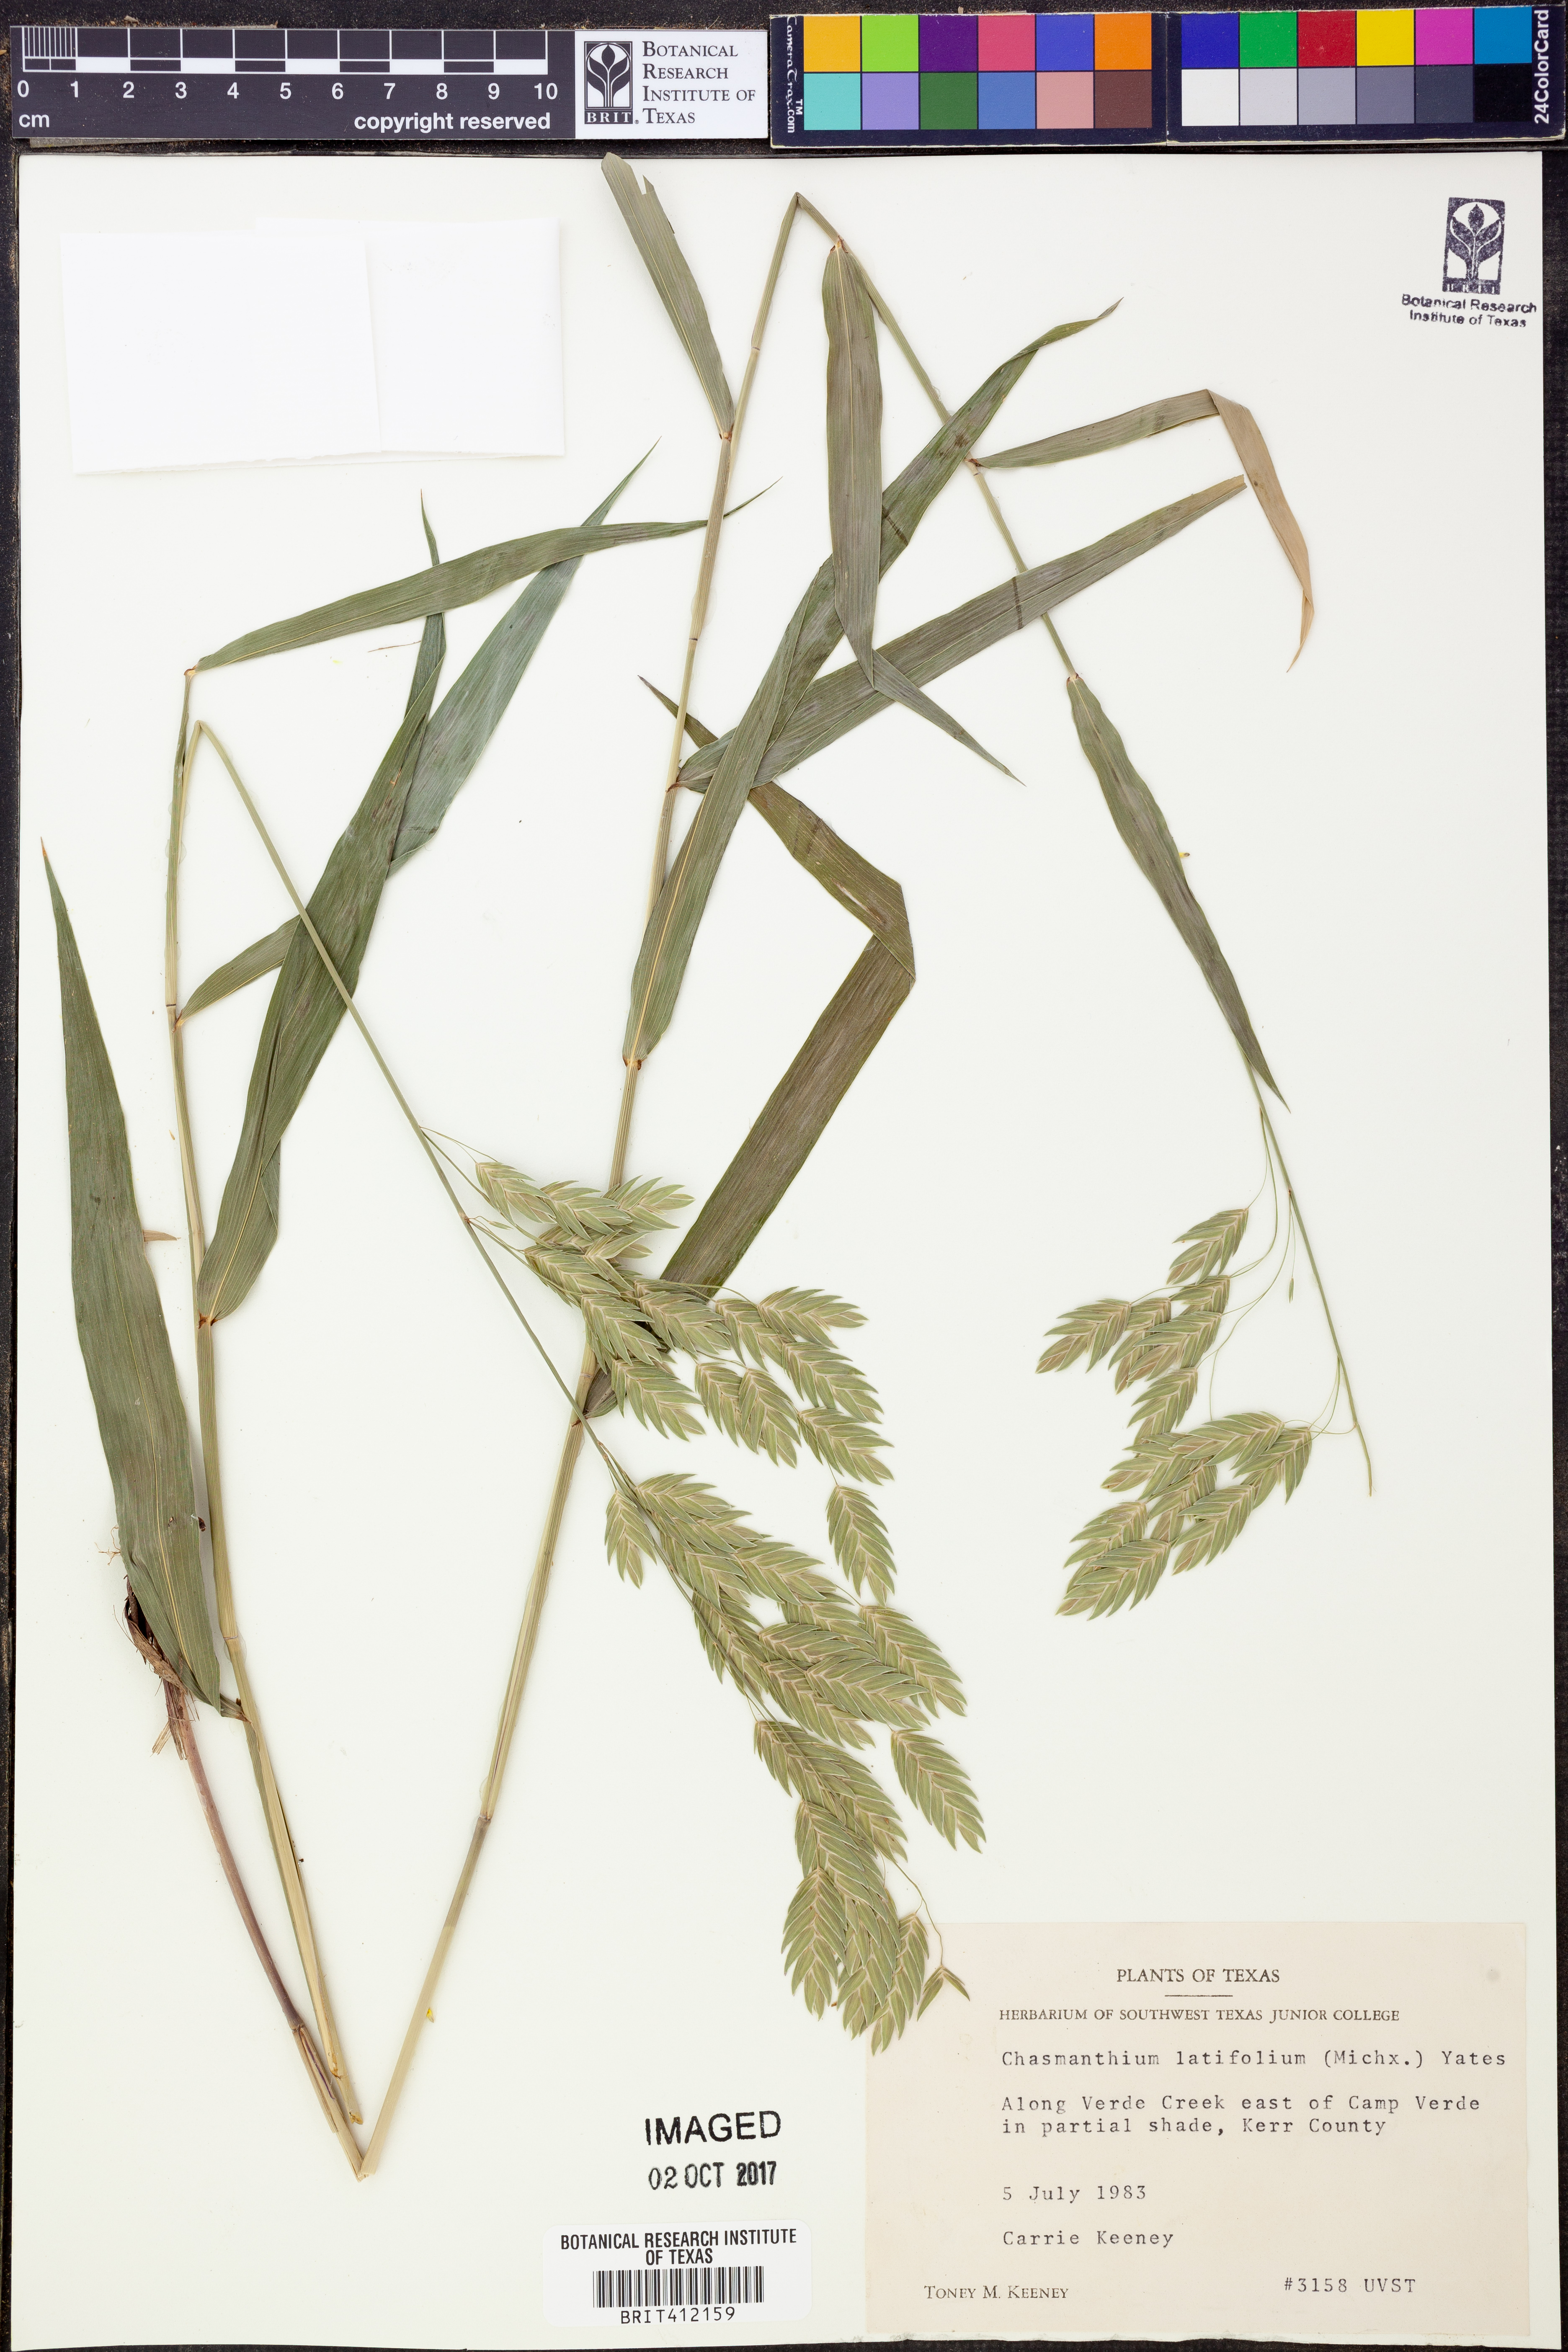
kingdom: Plantae
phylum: Tracheophyta
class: Liliopsida
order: Poales
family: Poaceae
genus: Chasmanthium
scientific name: Chasmanthium latifolium
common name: Broad-leaved chasmanthium
